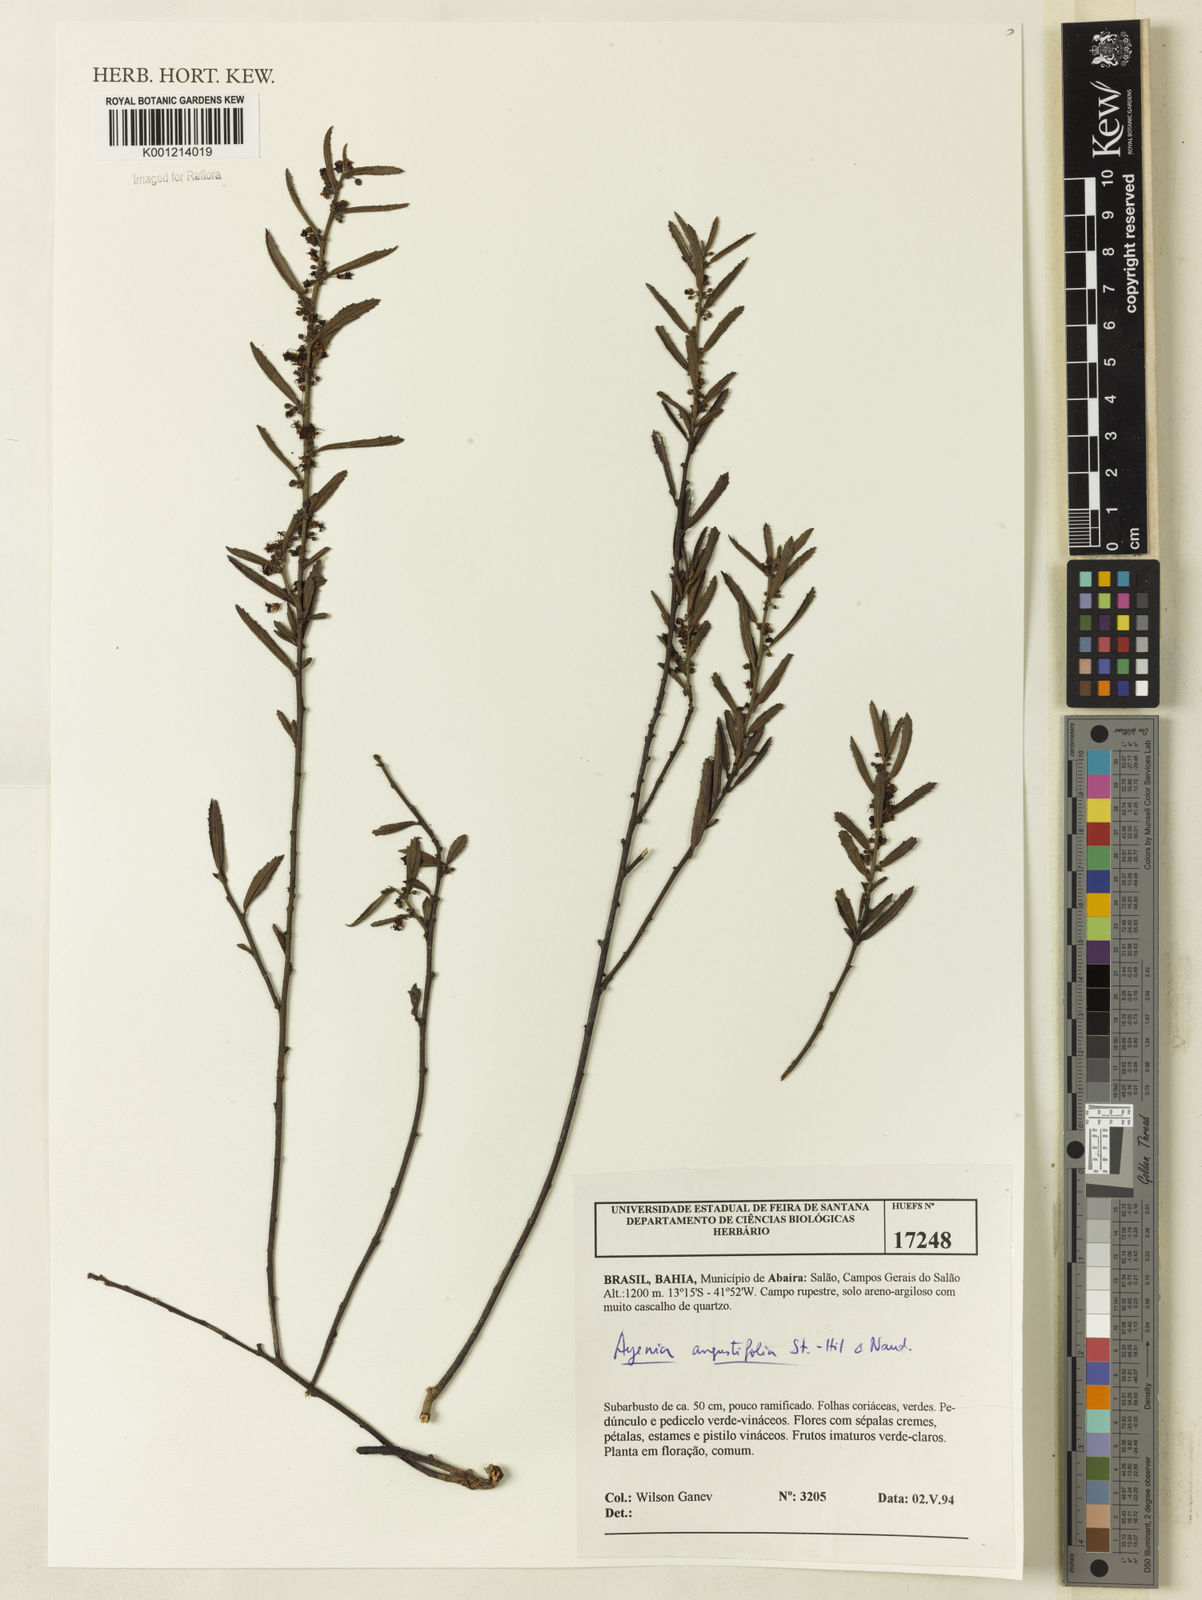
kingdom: Plantae
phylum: Tracheophyta
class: Magnoliopsida
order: Malvales
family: Malvaceae
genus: Ayenia
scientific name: Ayenia angustifolia
